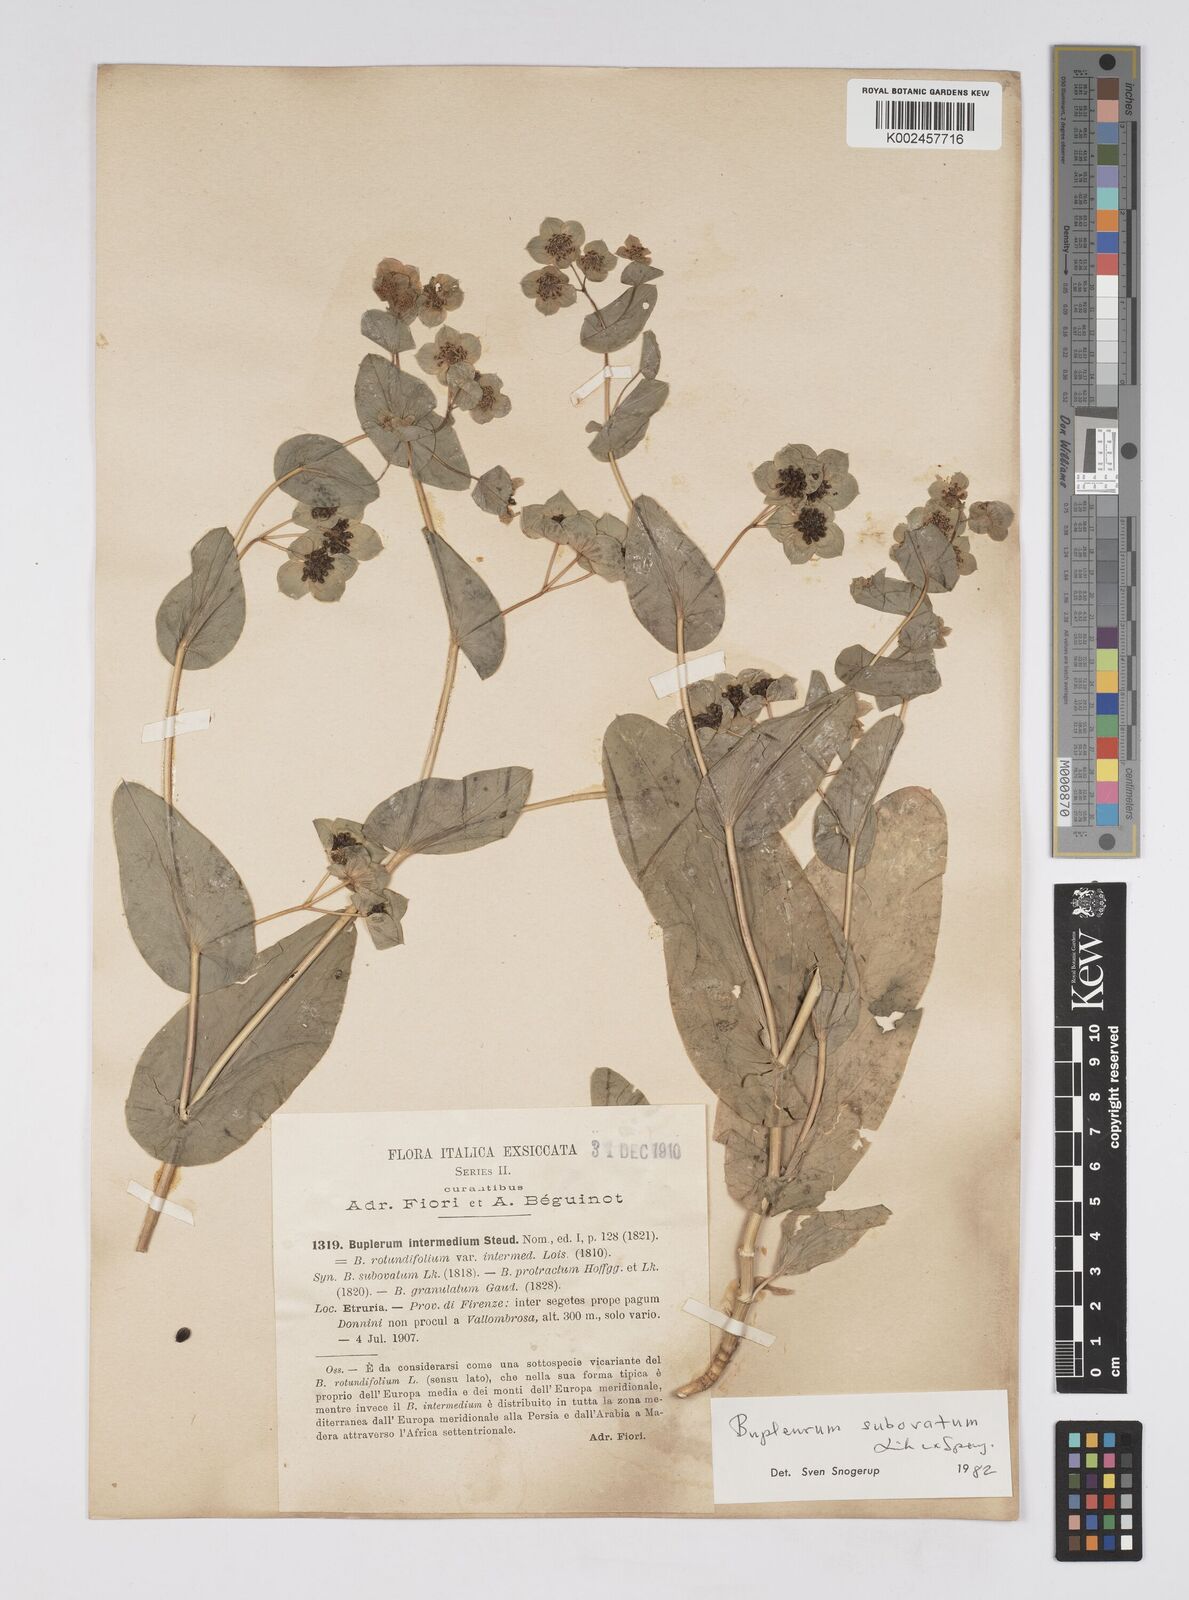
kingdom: Plantae
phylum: Tracheophyta
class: Magnoliopsida
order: Apiales
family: Apiaceae
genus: Bupleurum
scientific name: Bupleurum lancifolium
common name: False thorow-wax
